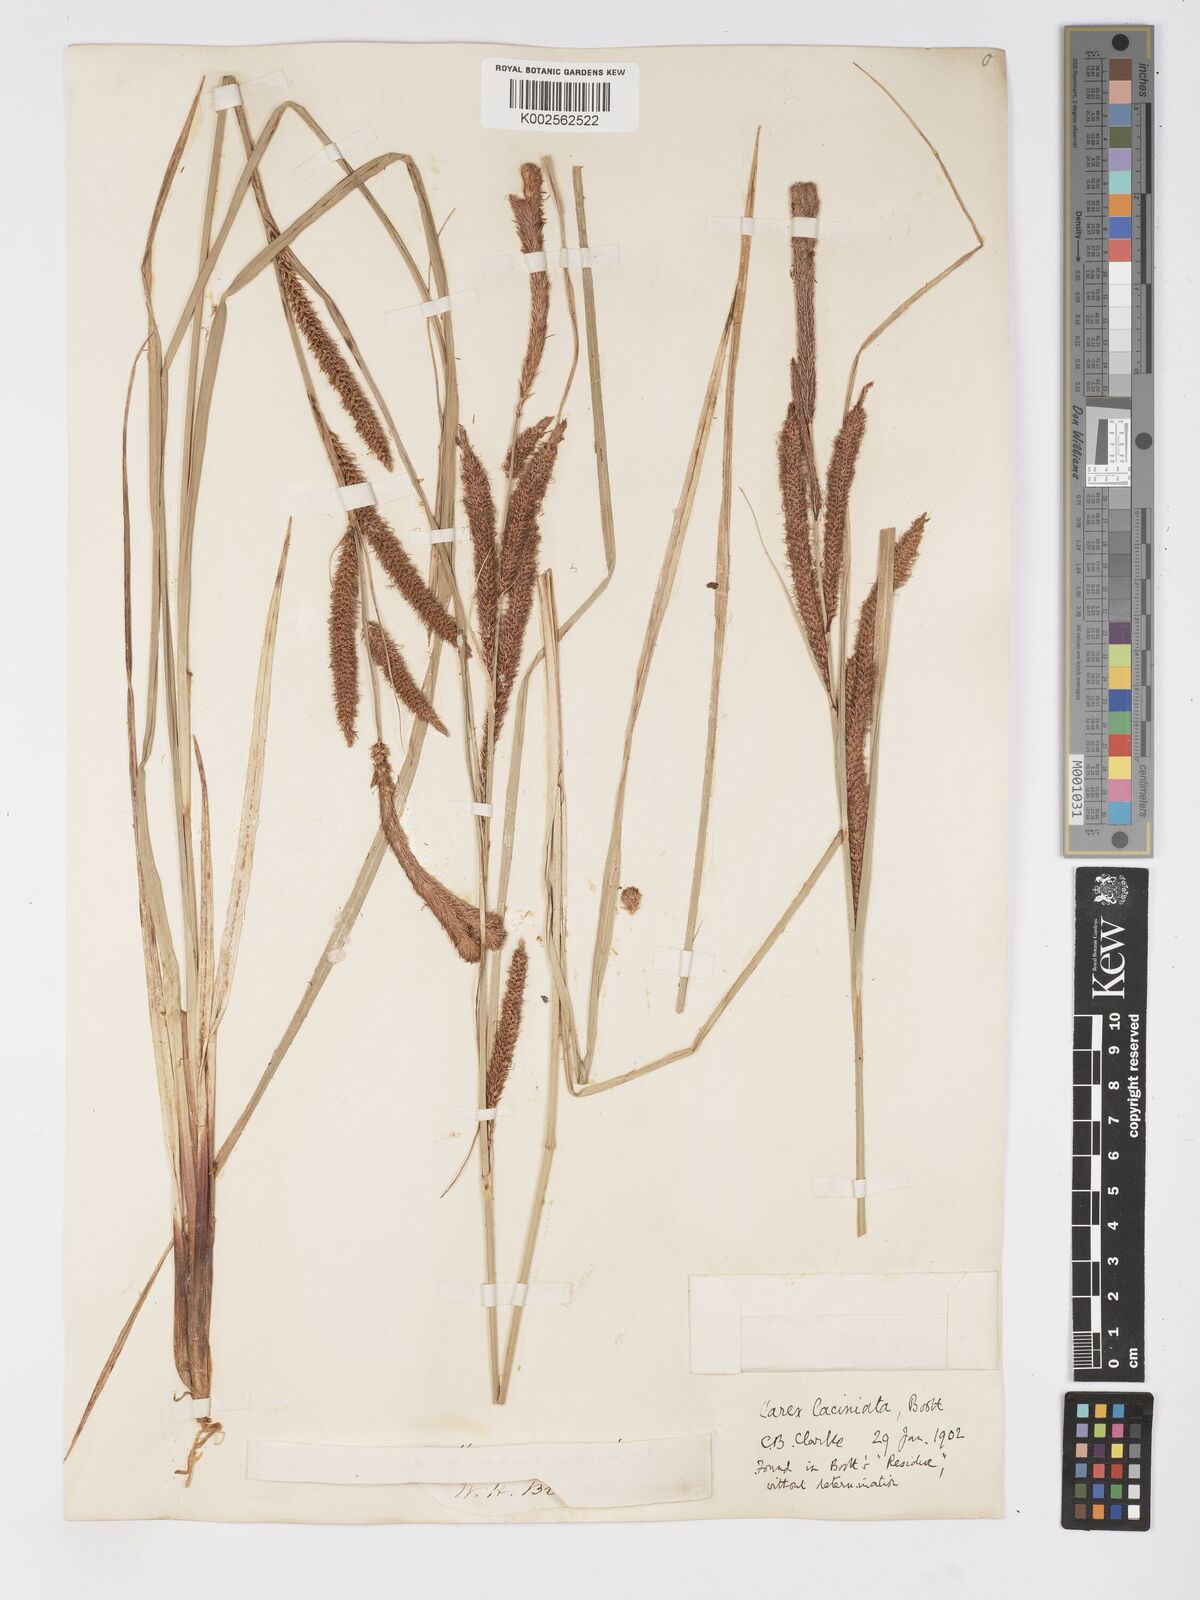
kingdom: Plantae
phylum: Tracheophyta
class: Liliopsida
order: Poales
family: Cyperaceae
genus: Carex
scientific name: Carex barbarae
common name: Santa barbara sedge
